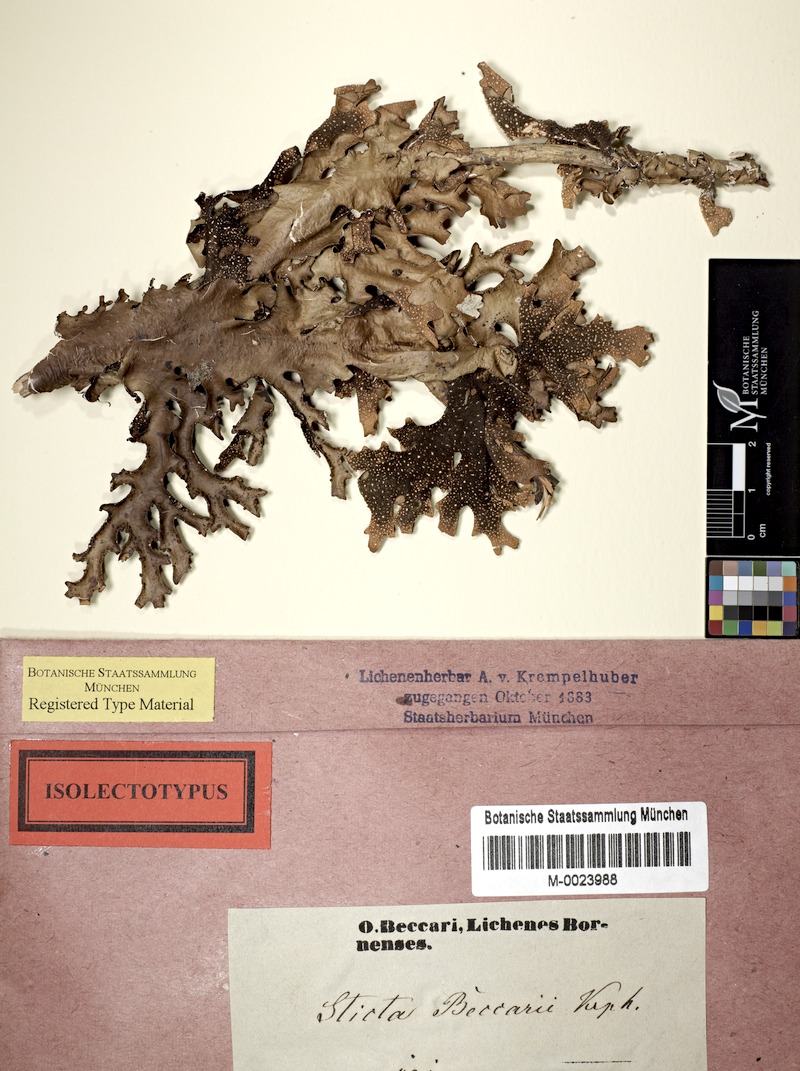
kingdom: Fungi
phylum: Ascomycota
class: Lecanoromycetes
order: Peltigerales
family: Lobariaceae
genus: Pseudocyphellaria
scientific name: Pseudocyphellaria beccarii
